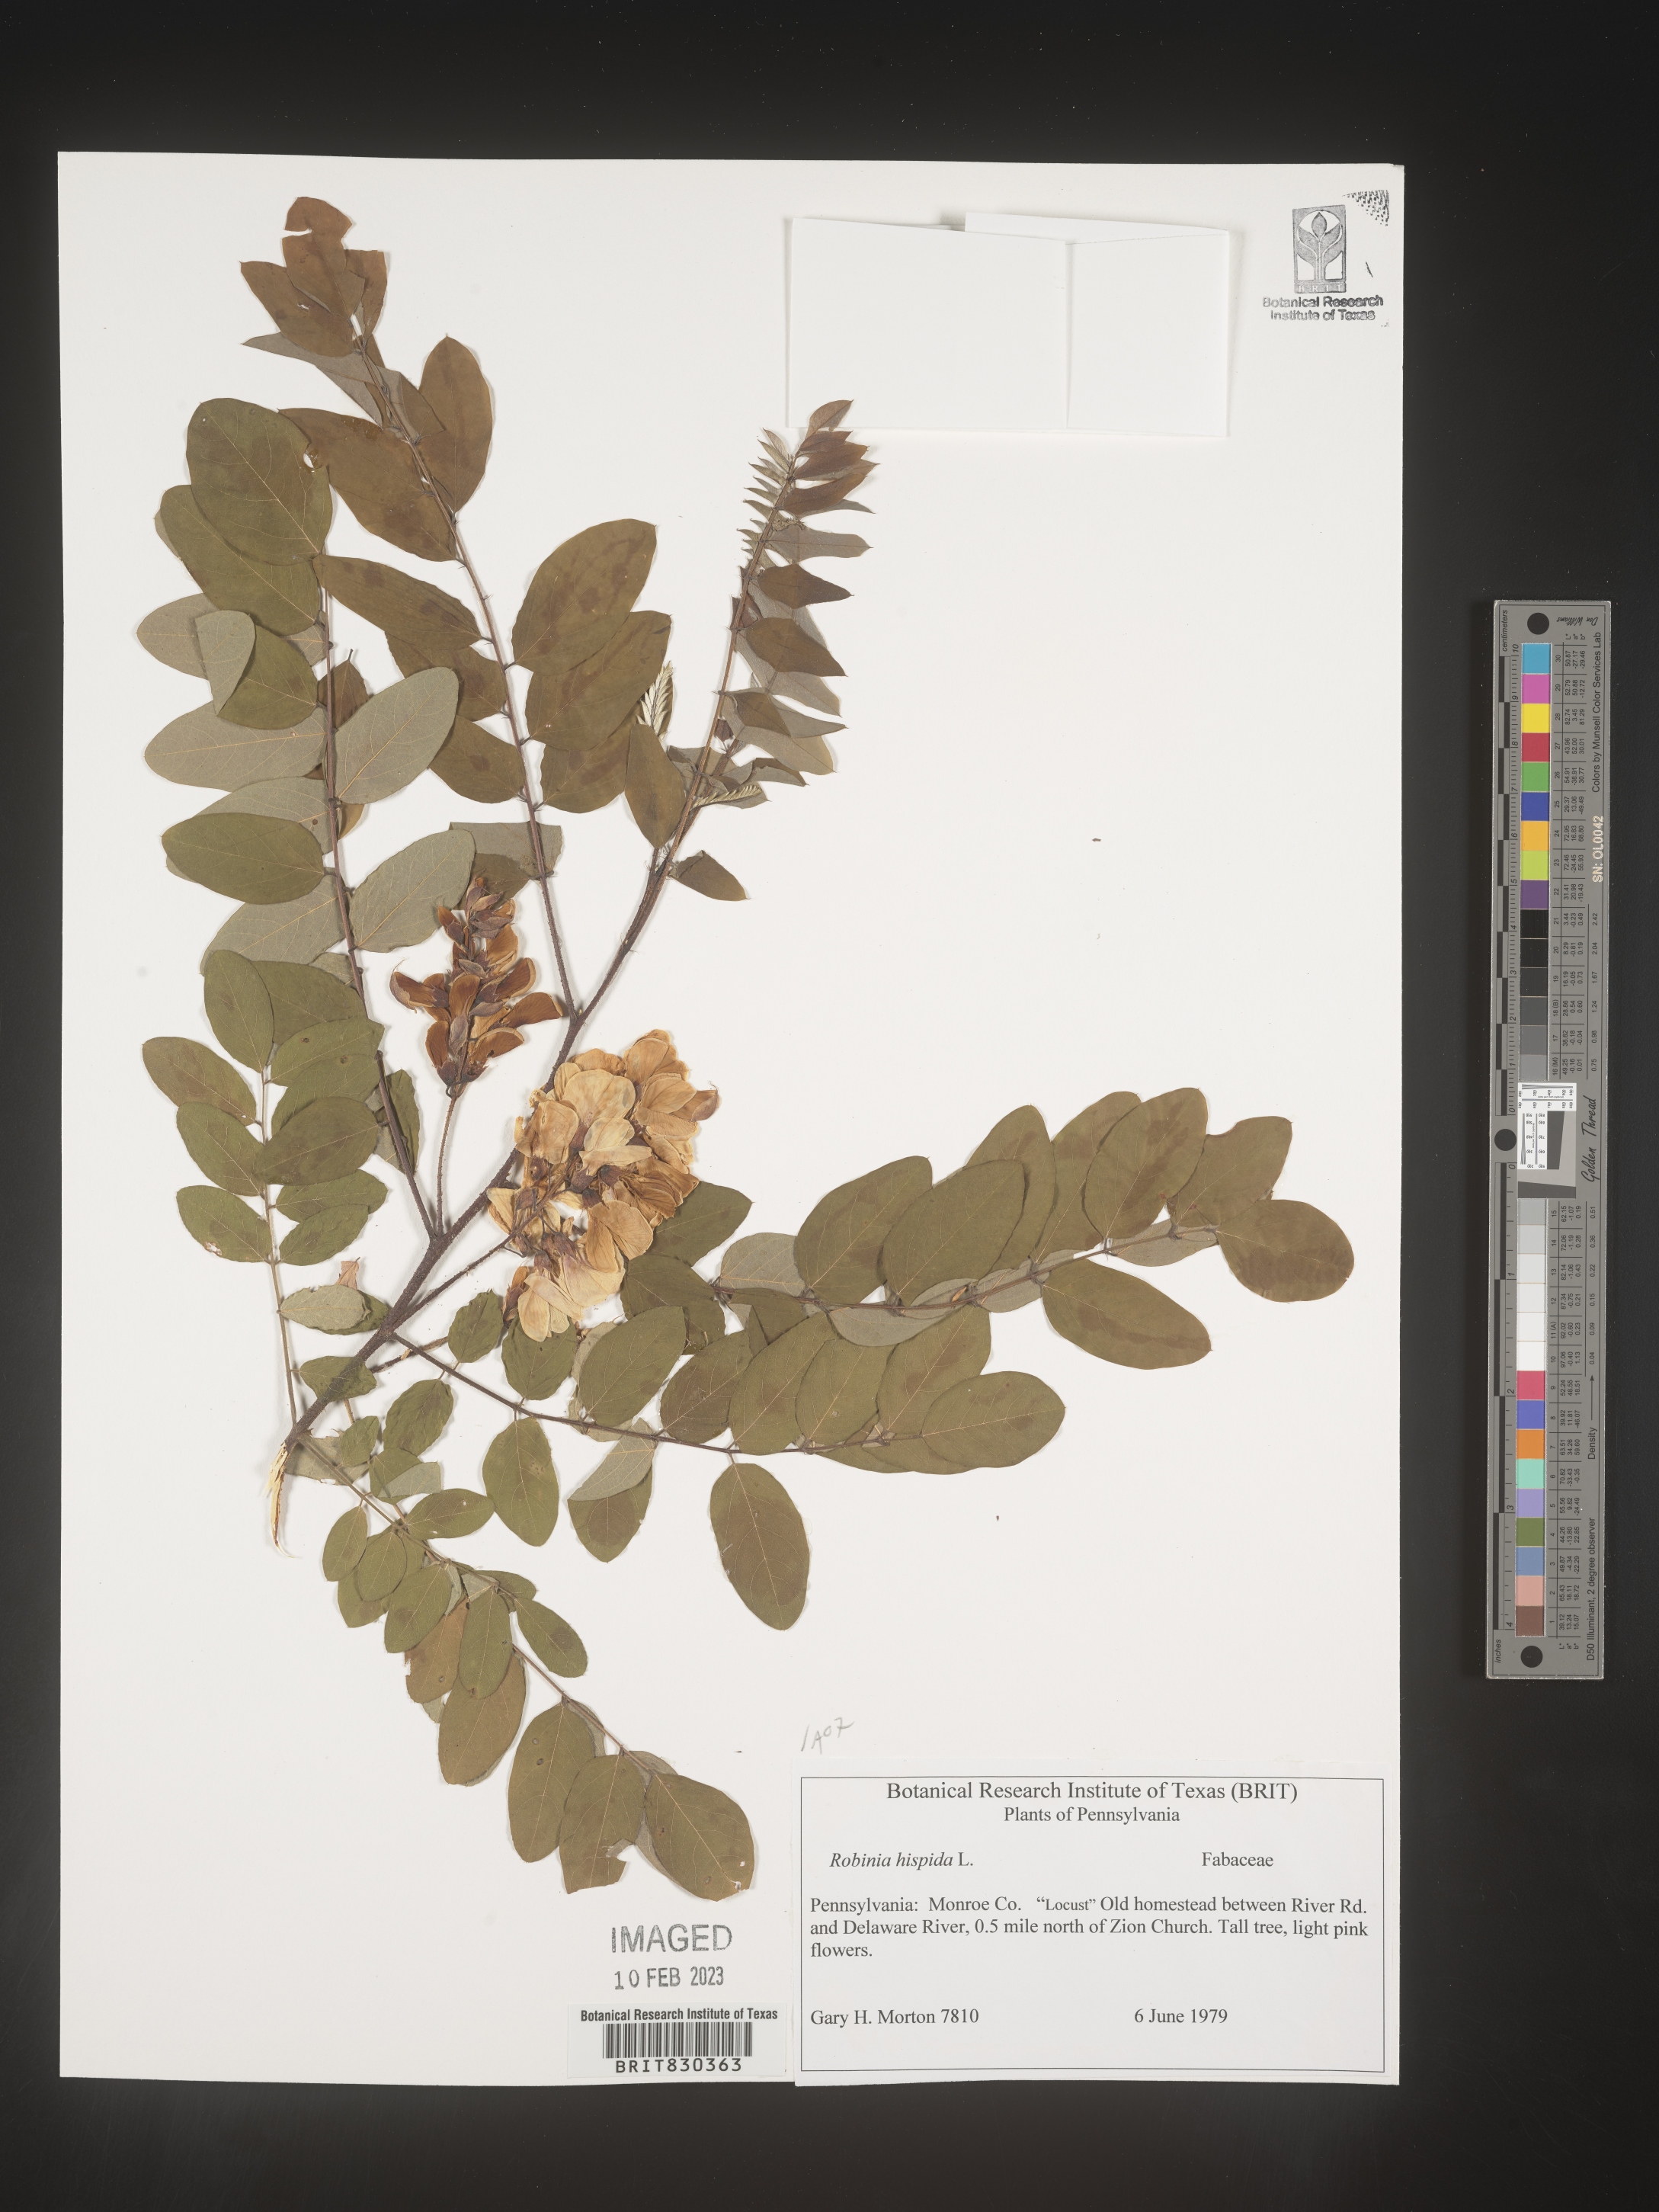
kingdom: Plantae
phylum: Tracheophyta
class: Magnoliopsida
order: Fabales
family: Fabaceae
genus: Robinia
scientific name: Robinia hispida
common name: Bristly locust
